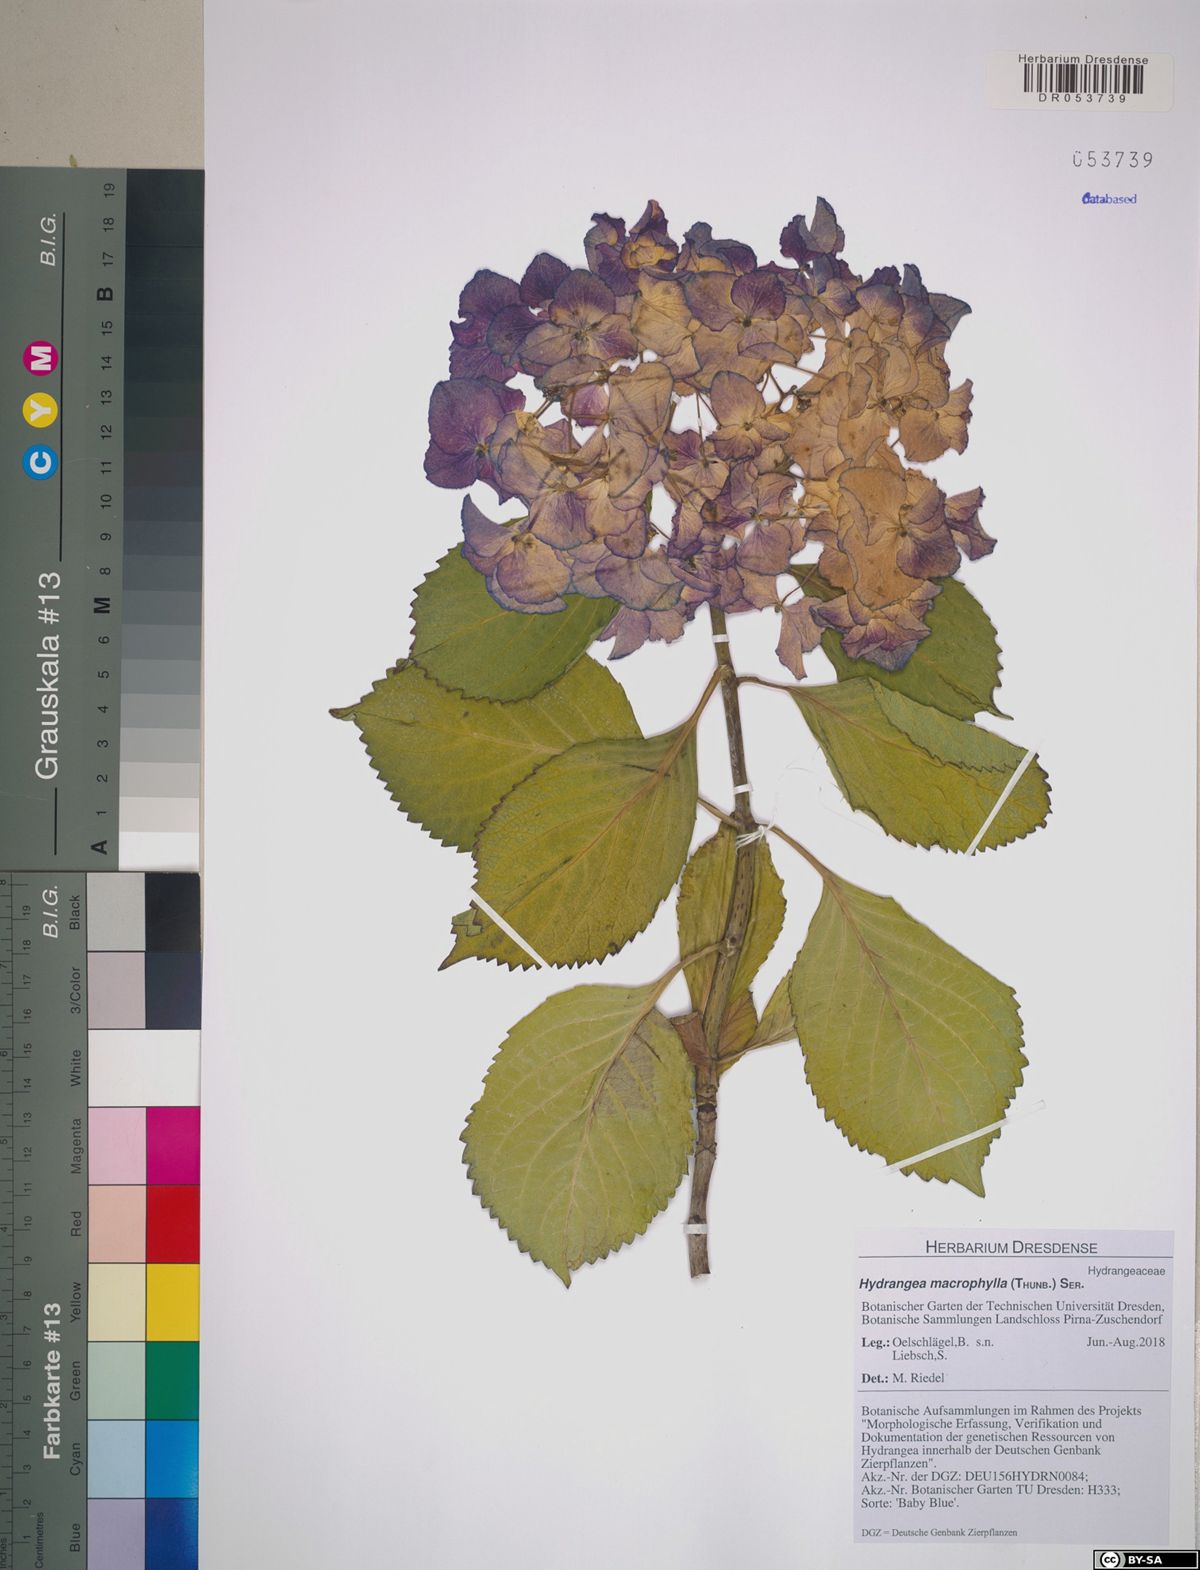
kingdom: Plantae
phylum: Tracheophyta
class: Magnoliopsida
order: Cornales
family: Hydrangeaceae
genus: Hydrangea
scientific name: Hydrangea macrophylla
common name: Hydrangea
